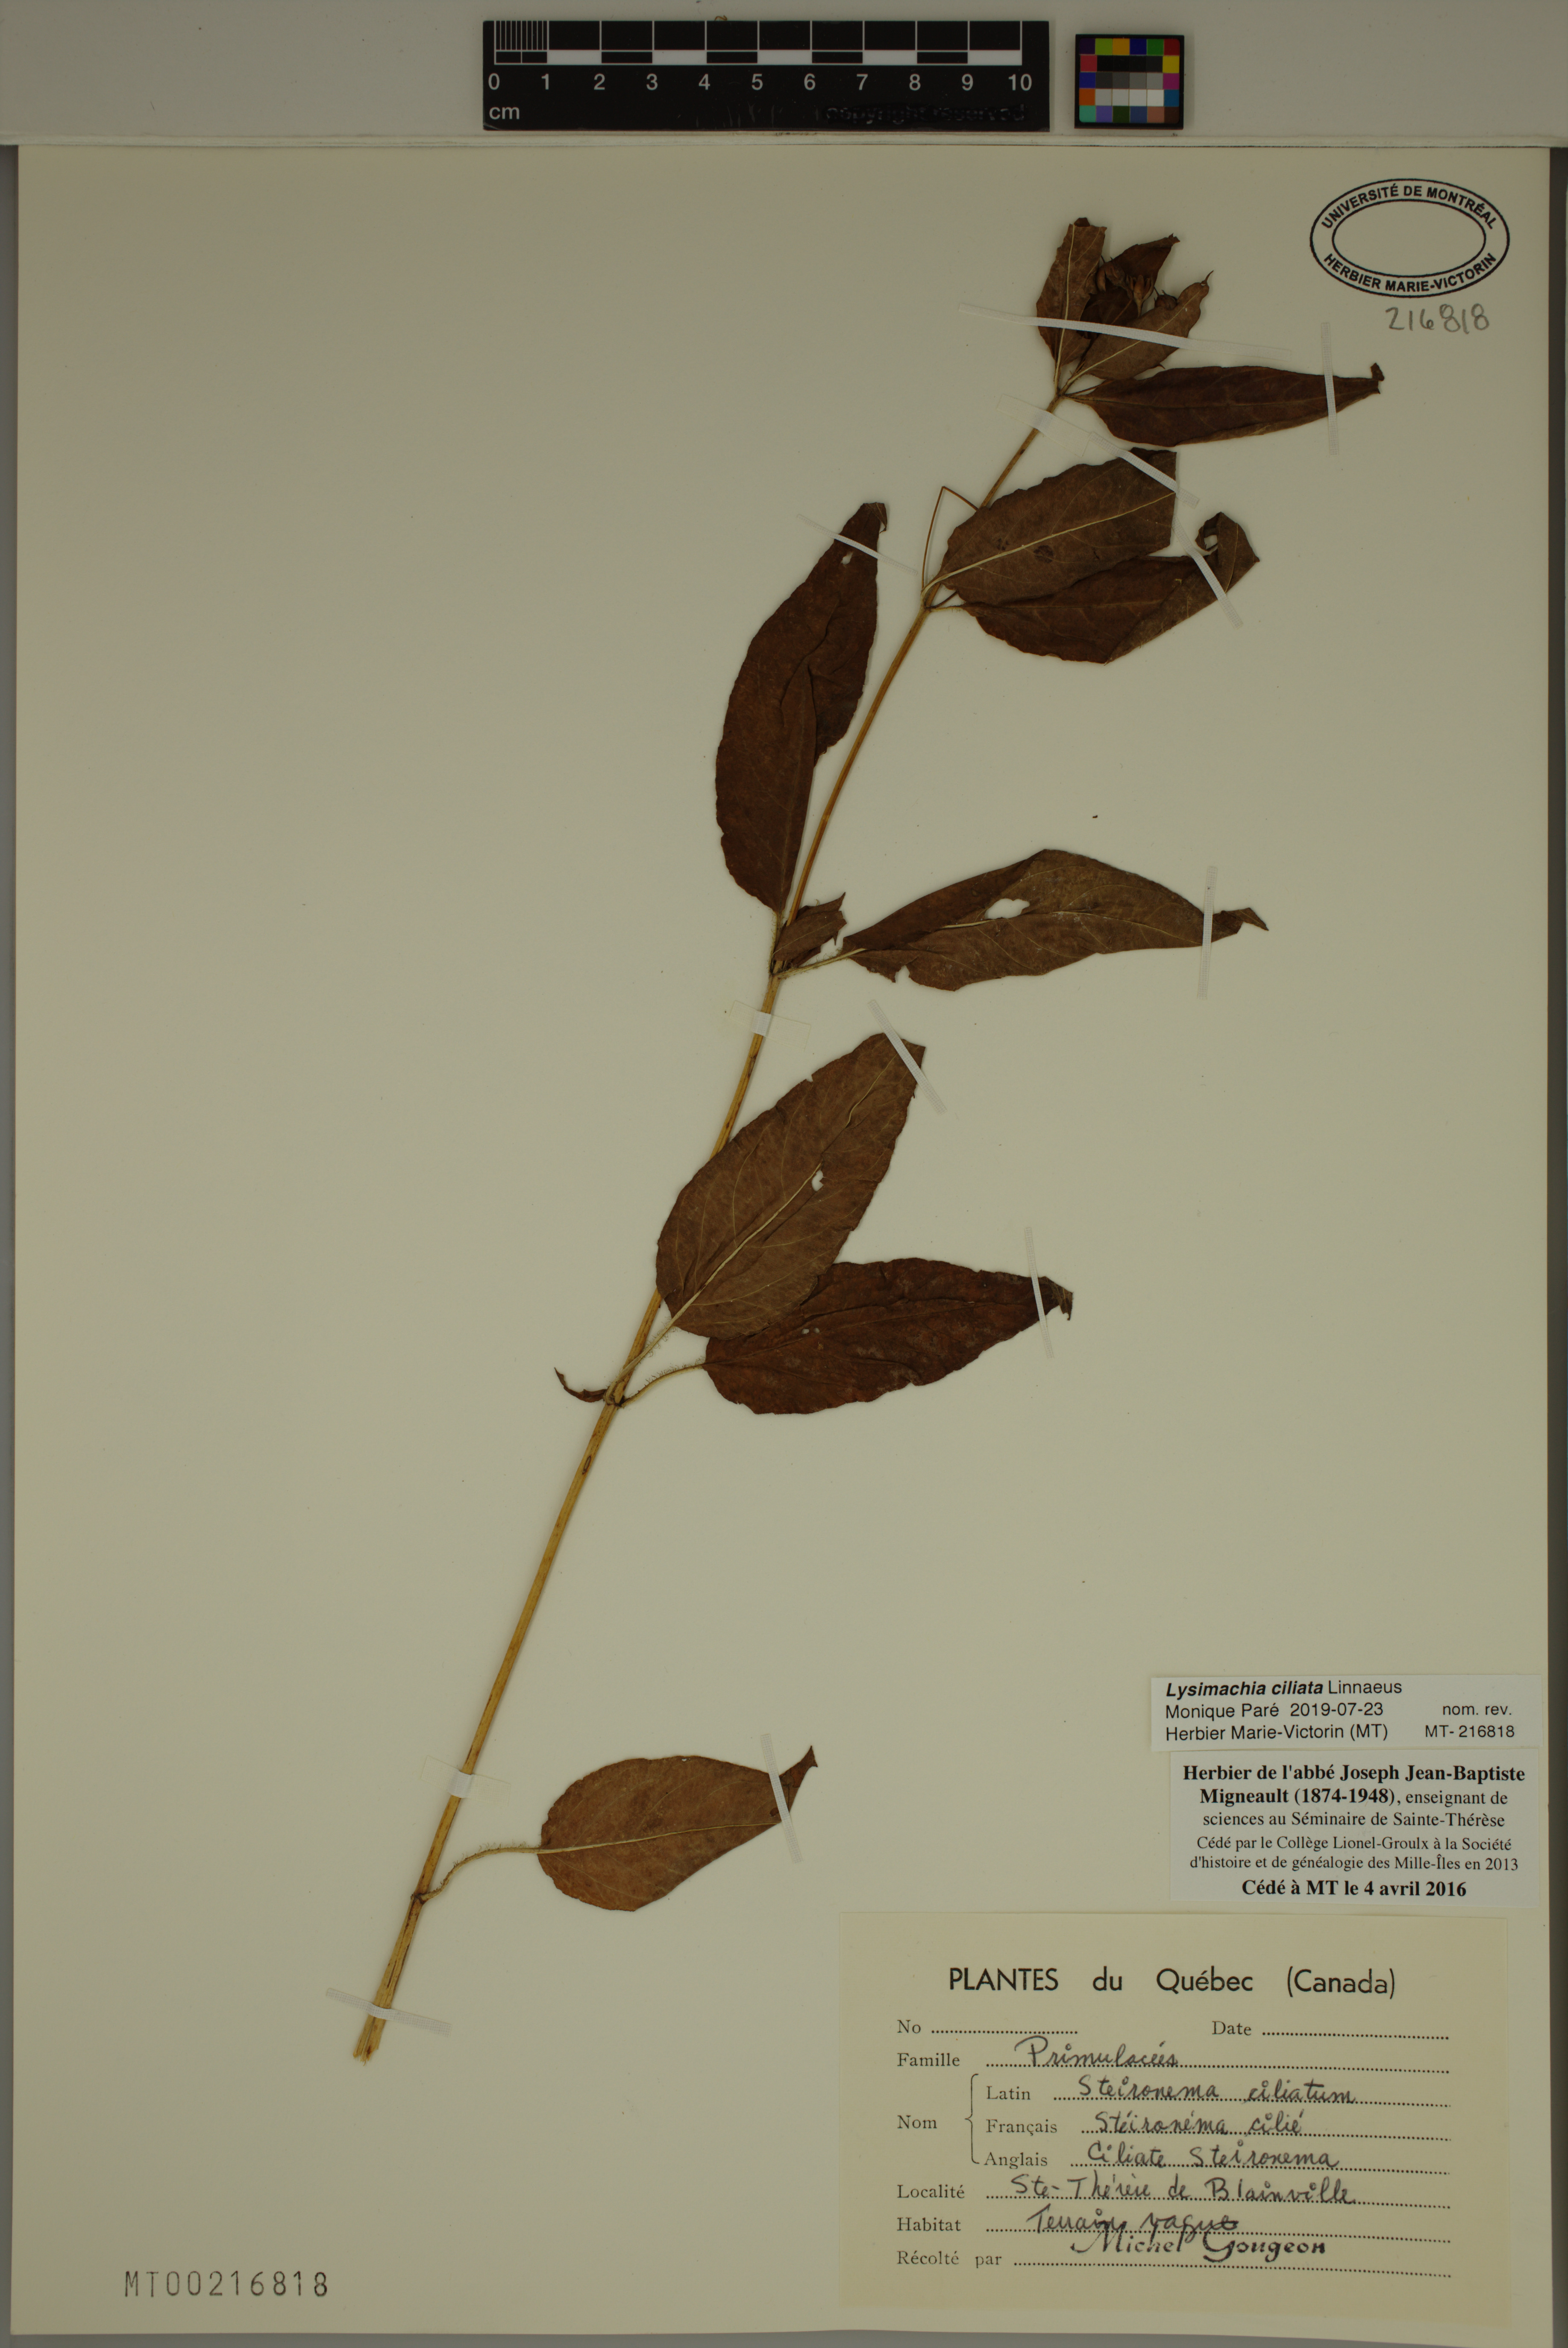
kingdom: Plantae
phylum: Tracheophyta
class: Magnoliopsida
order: Ericales
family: Primulaceae
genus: Lysimachia
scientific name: Lysimachia ciliata
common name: Fringed loosestrife
